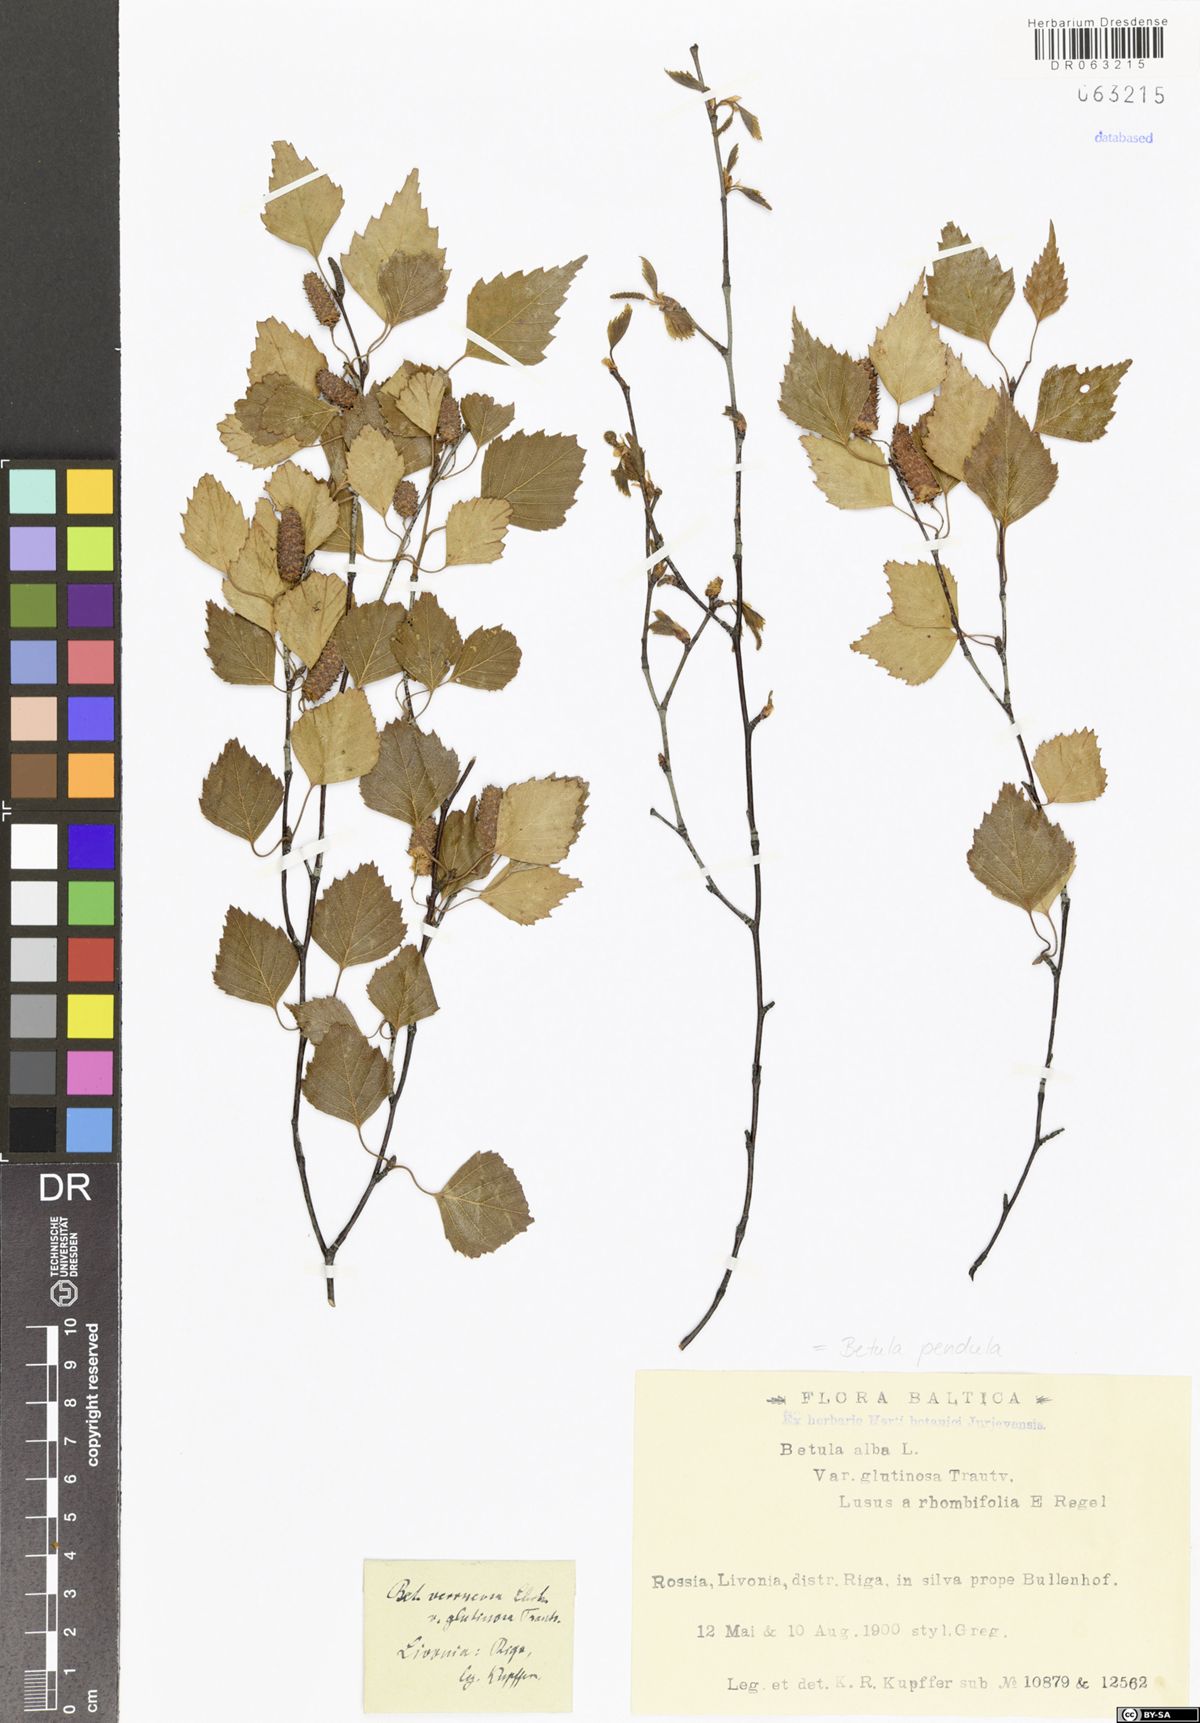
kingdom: Plantae
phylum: Tracheophyta
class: Magnoliopsida
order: Fagales
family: Betulaceae
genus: Betula
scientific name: Betula pendula
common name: Silver birch
